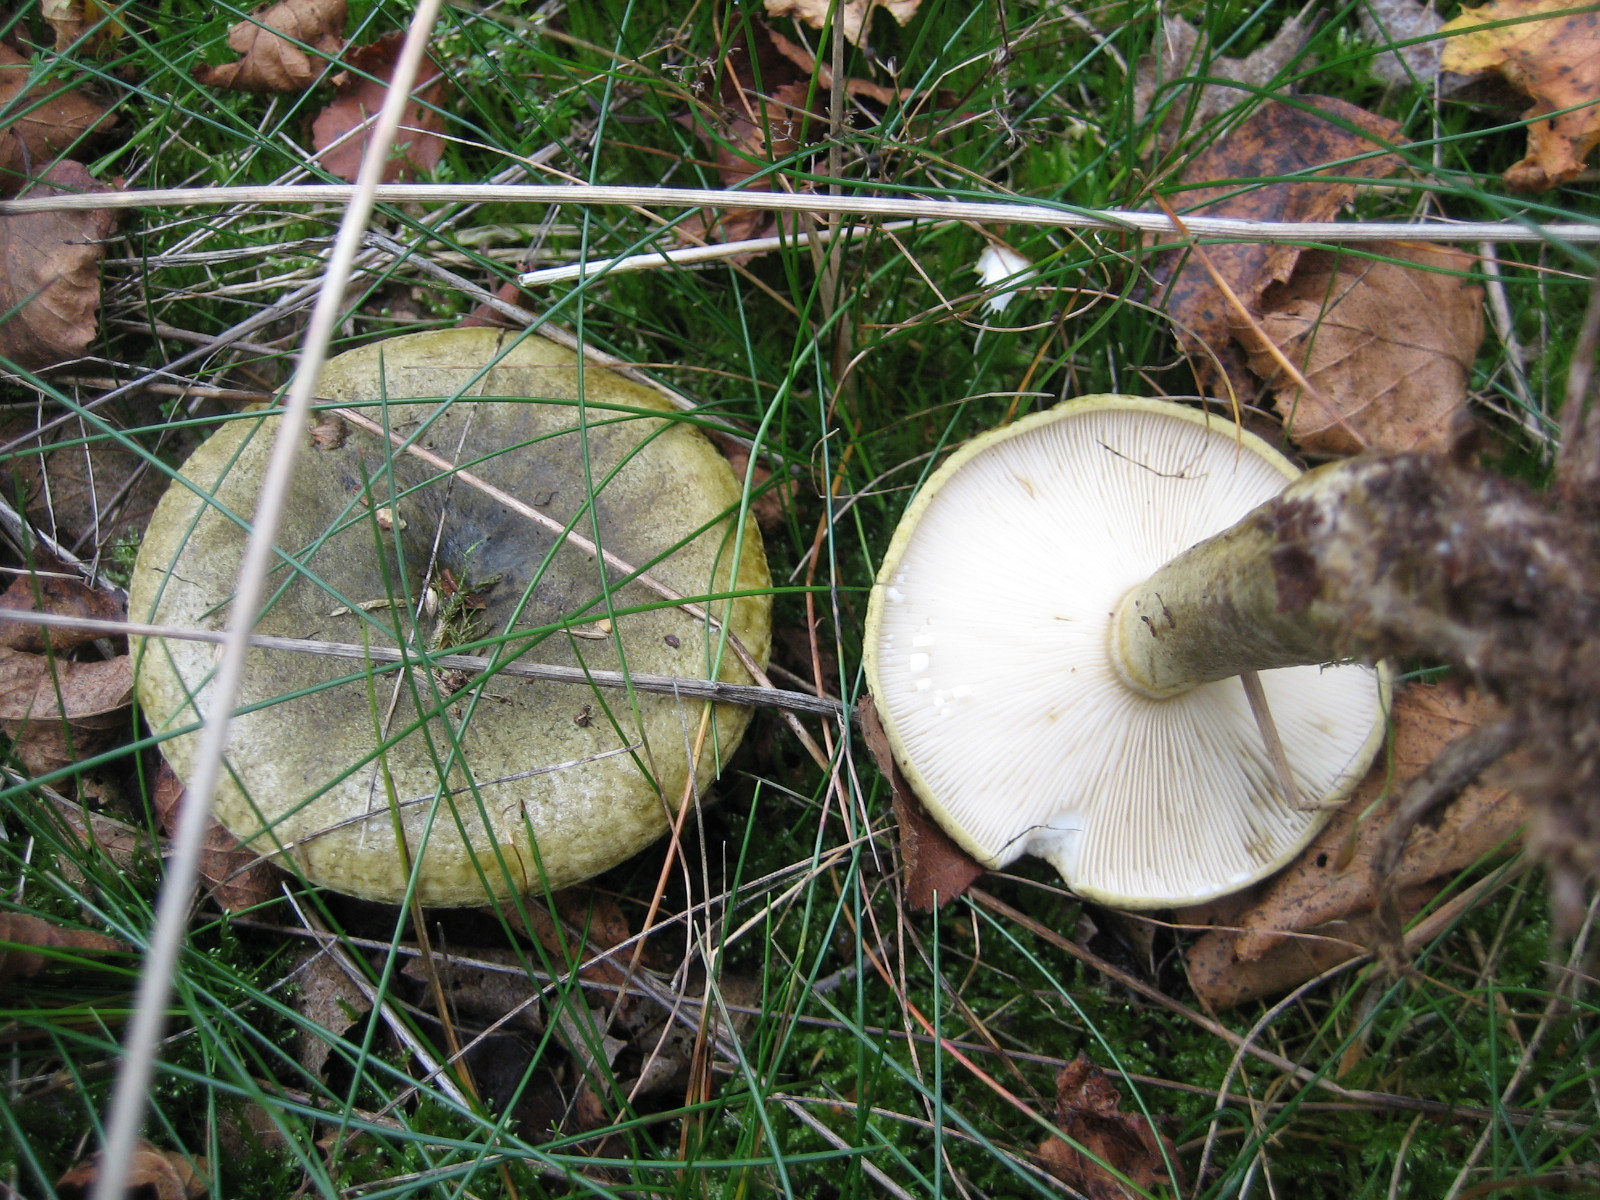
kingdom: Fungi
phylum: Basidiomycota
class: Agaricomycetes
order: Russulales
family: Russulaceae
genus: Lactarius
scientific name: Lactarius necator
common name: manddraber-mælkehat
